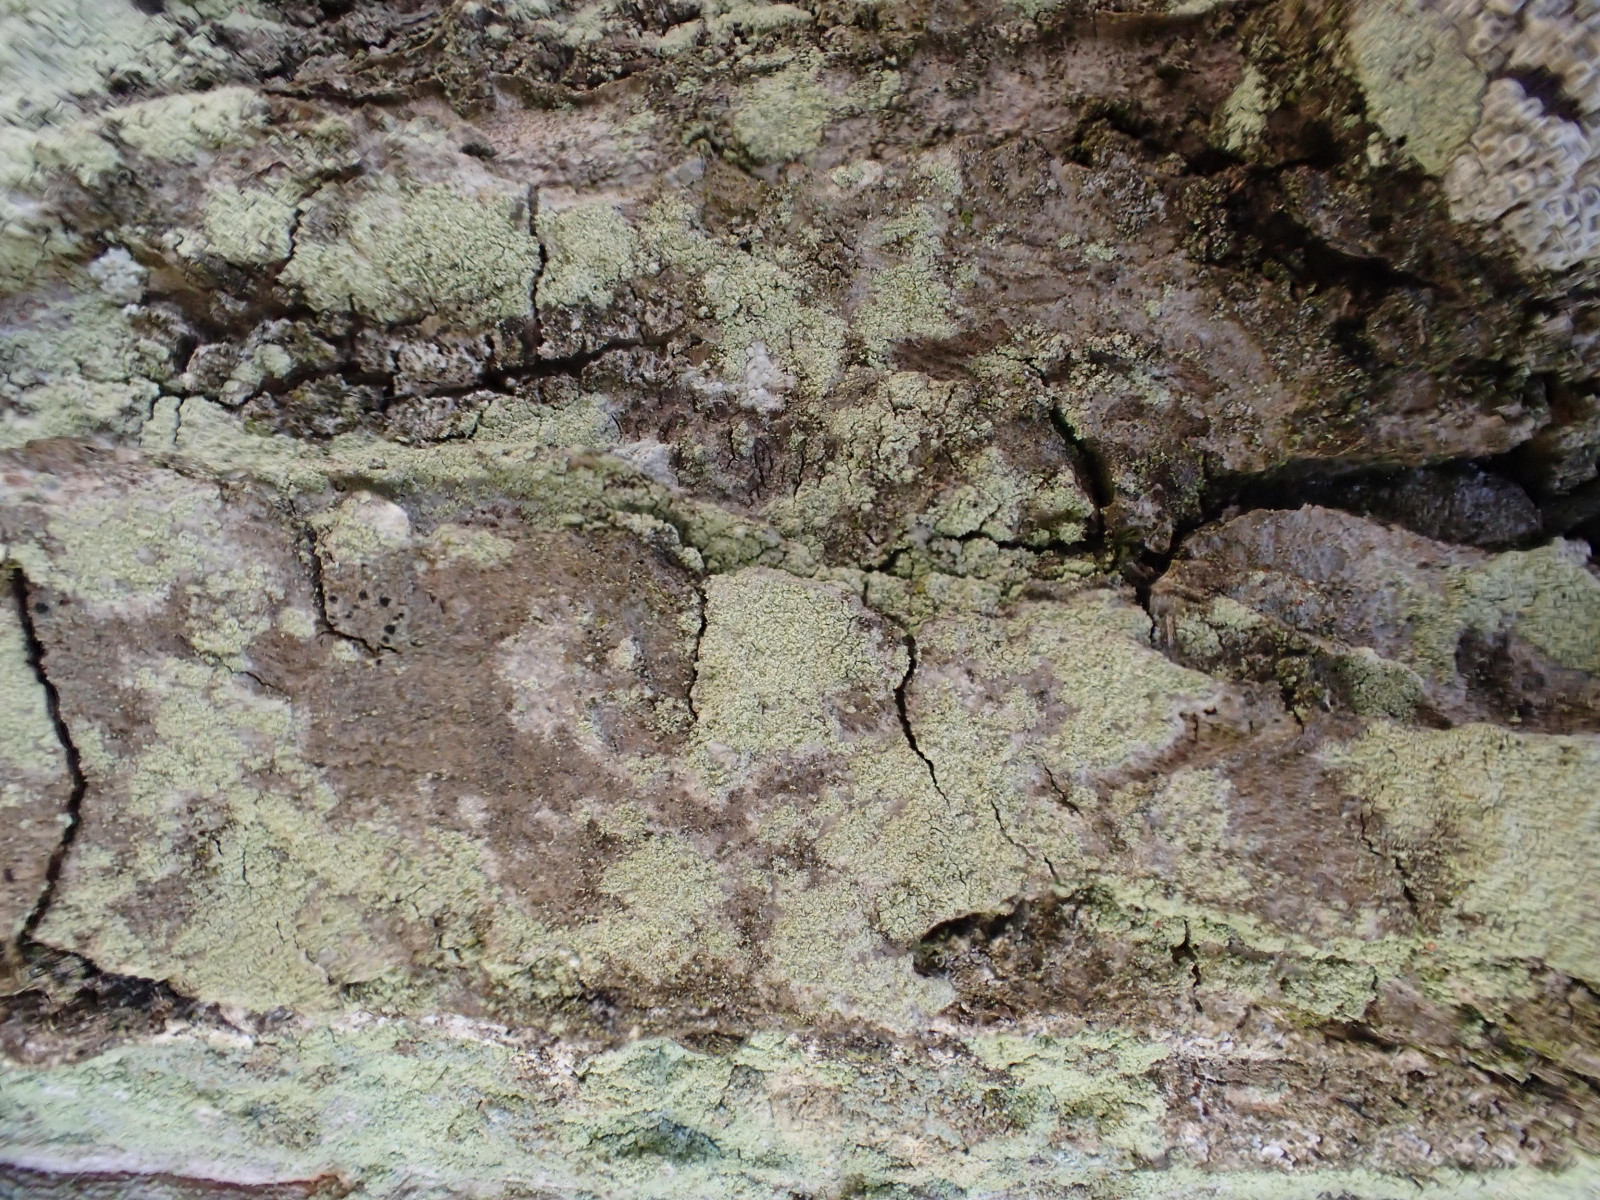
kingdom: Fungi
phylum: Ascomycota
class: Lecanoromycetes
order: Lecanorales
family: Lecanoraceae
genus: Lecanora
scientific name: Lecanora expallens
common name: bleggul kantskivelav
